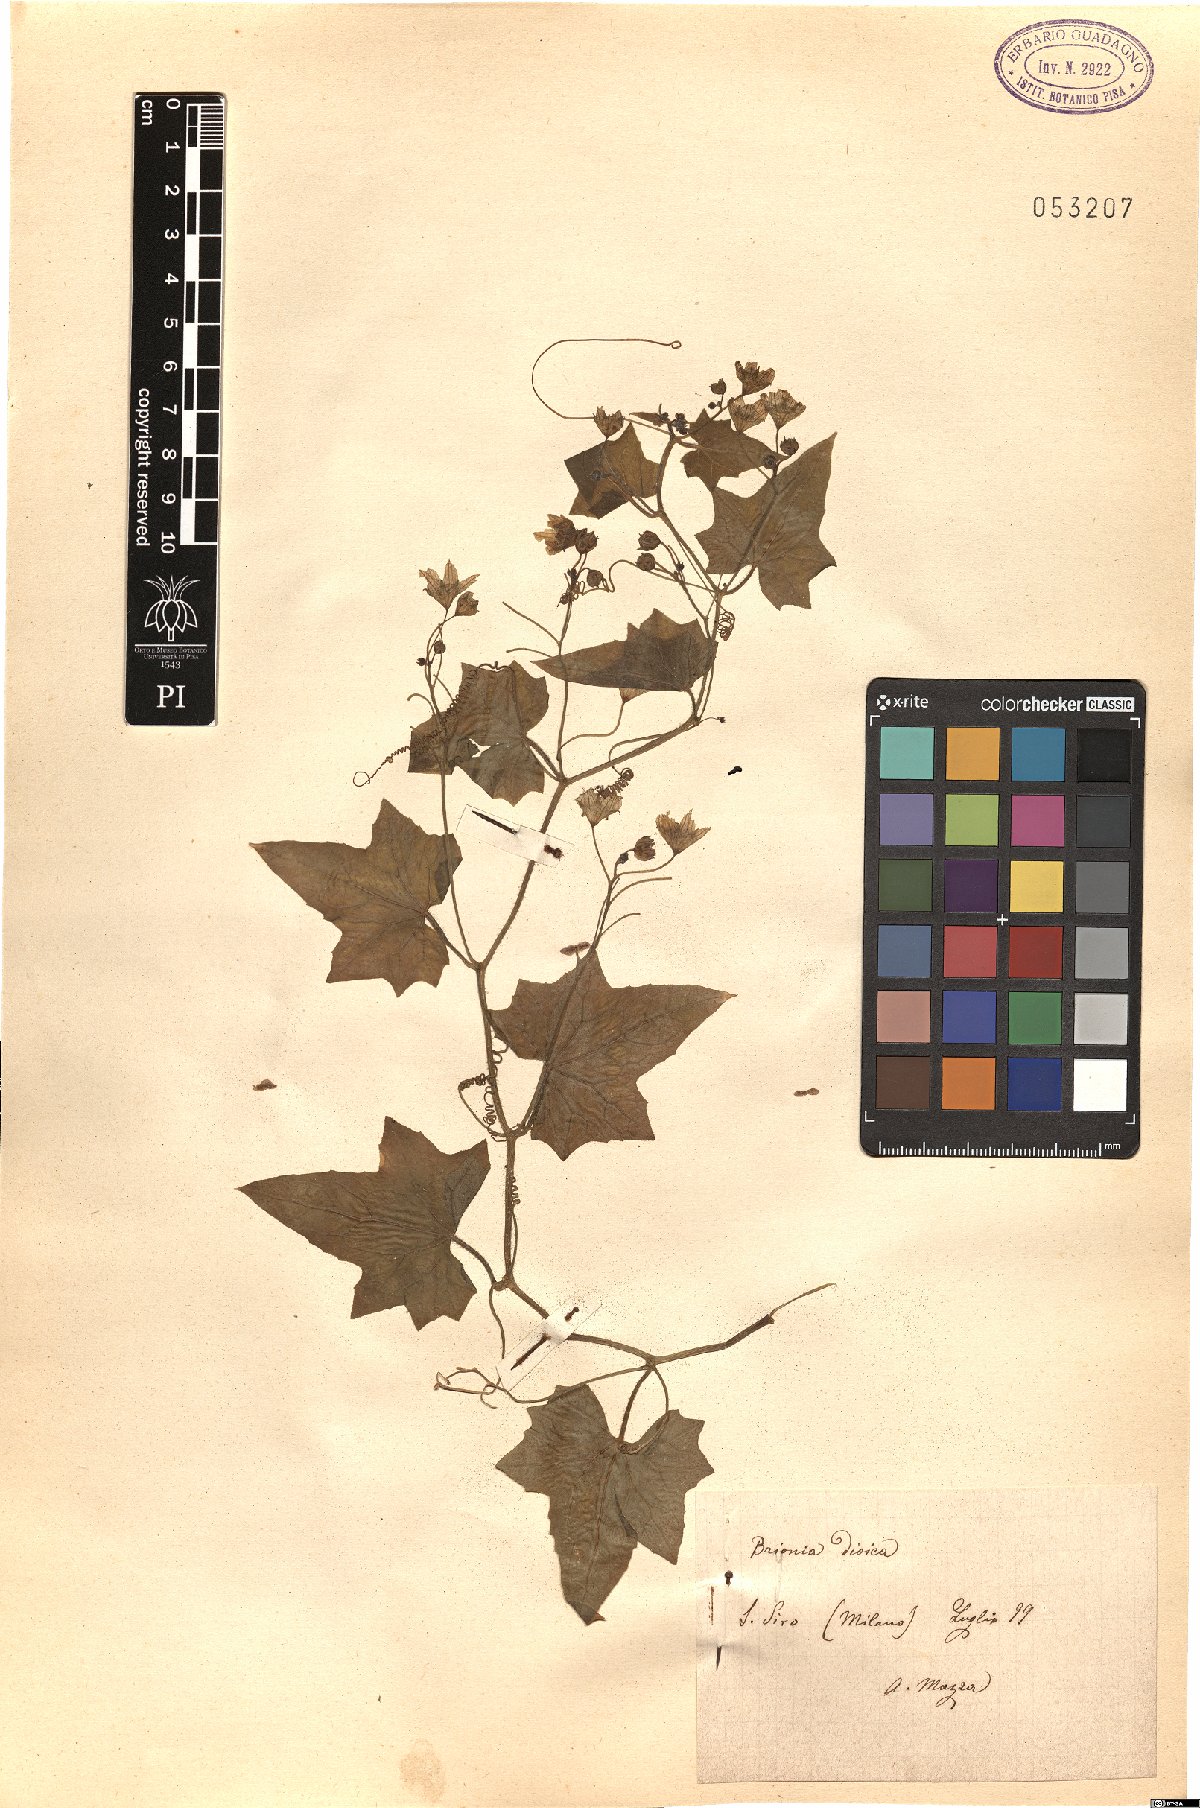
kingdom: Plantae
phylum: Tracheophyta
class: Magnoliopsida
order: Cucurbitales
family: Cucurbitaceae
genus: Bryonia
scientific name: Bryonia dioica
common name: White bryony
